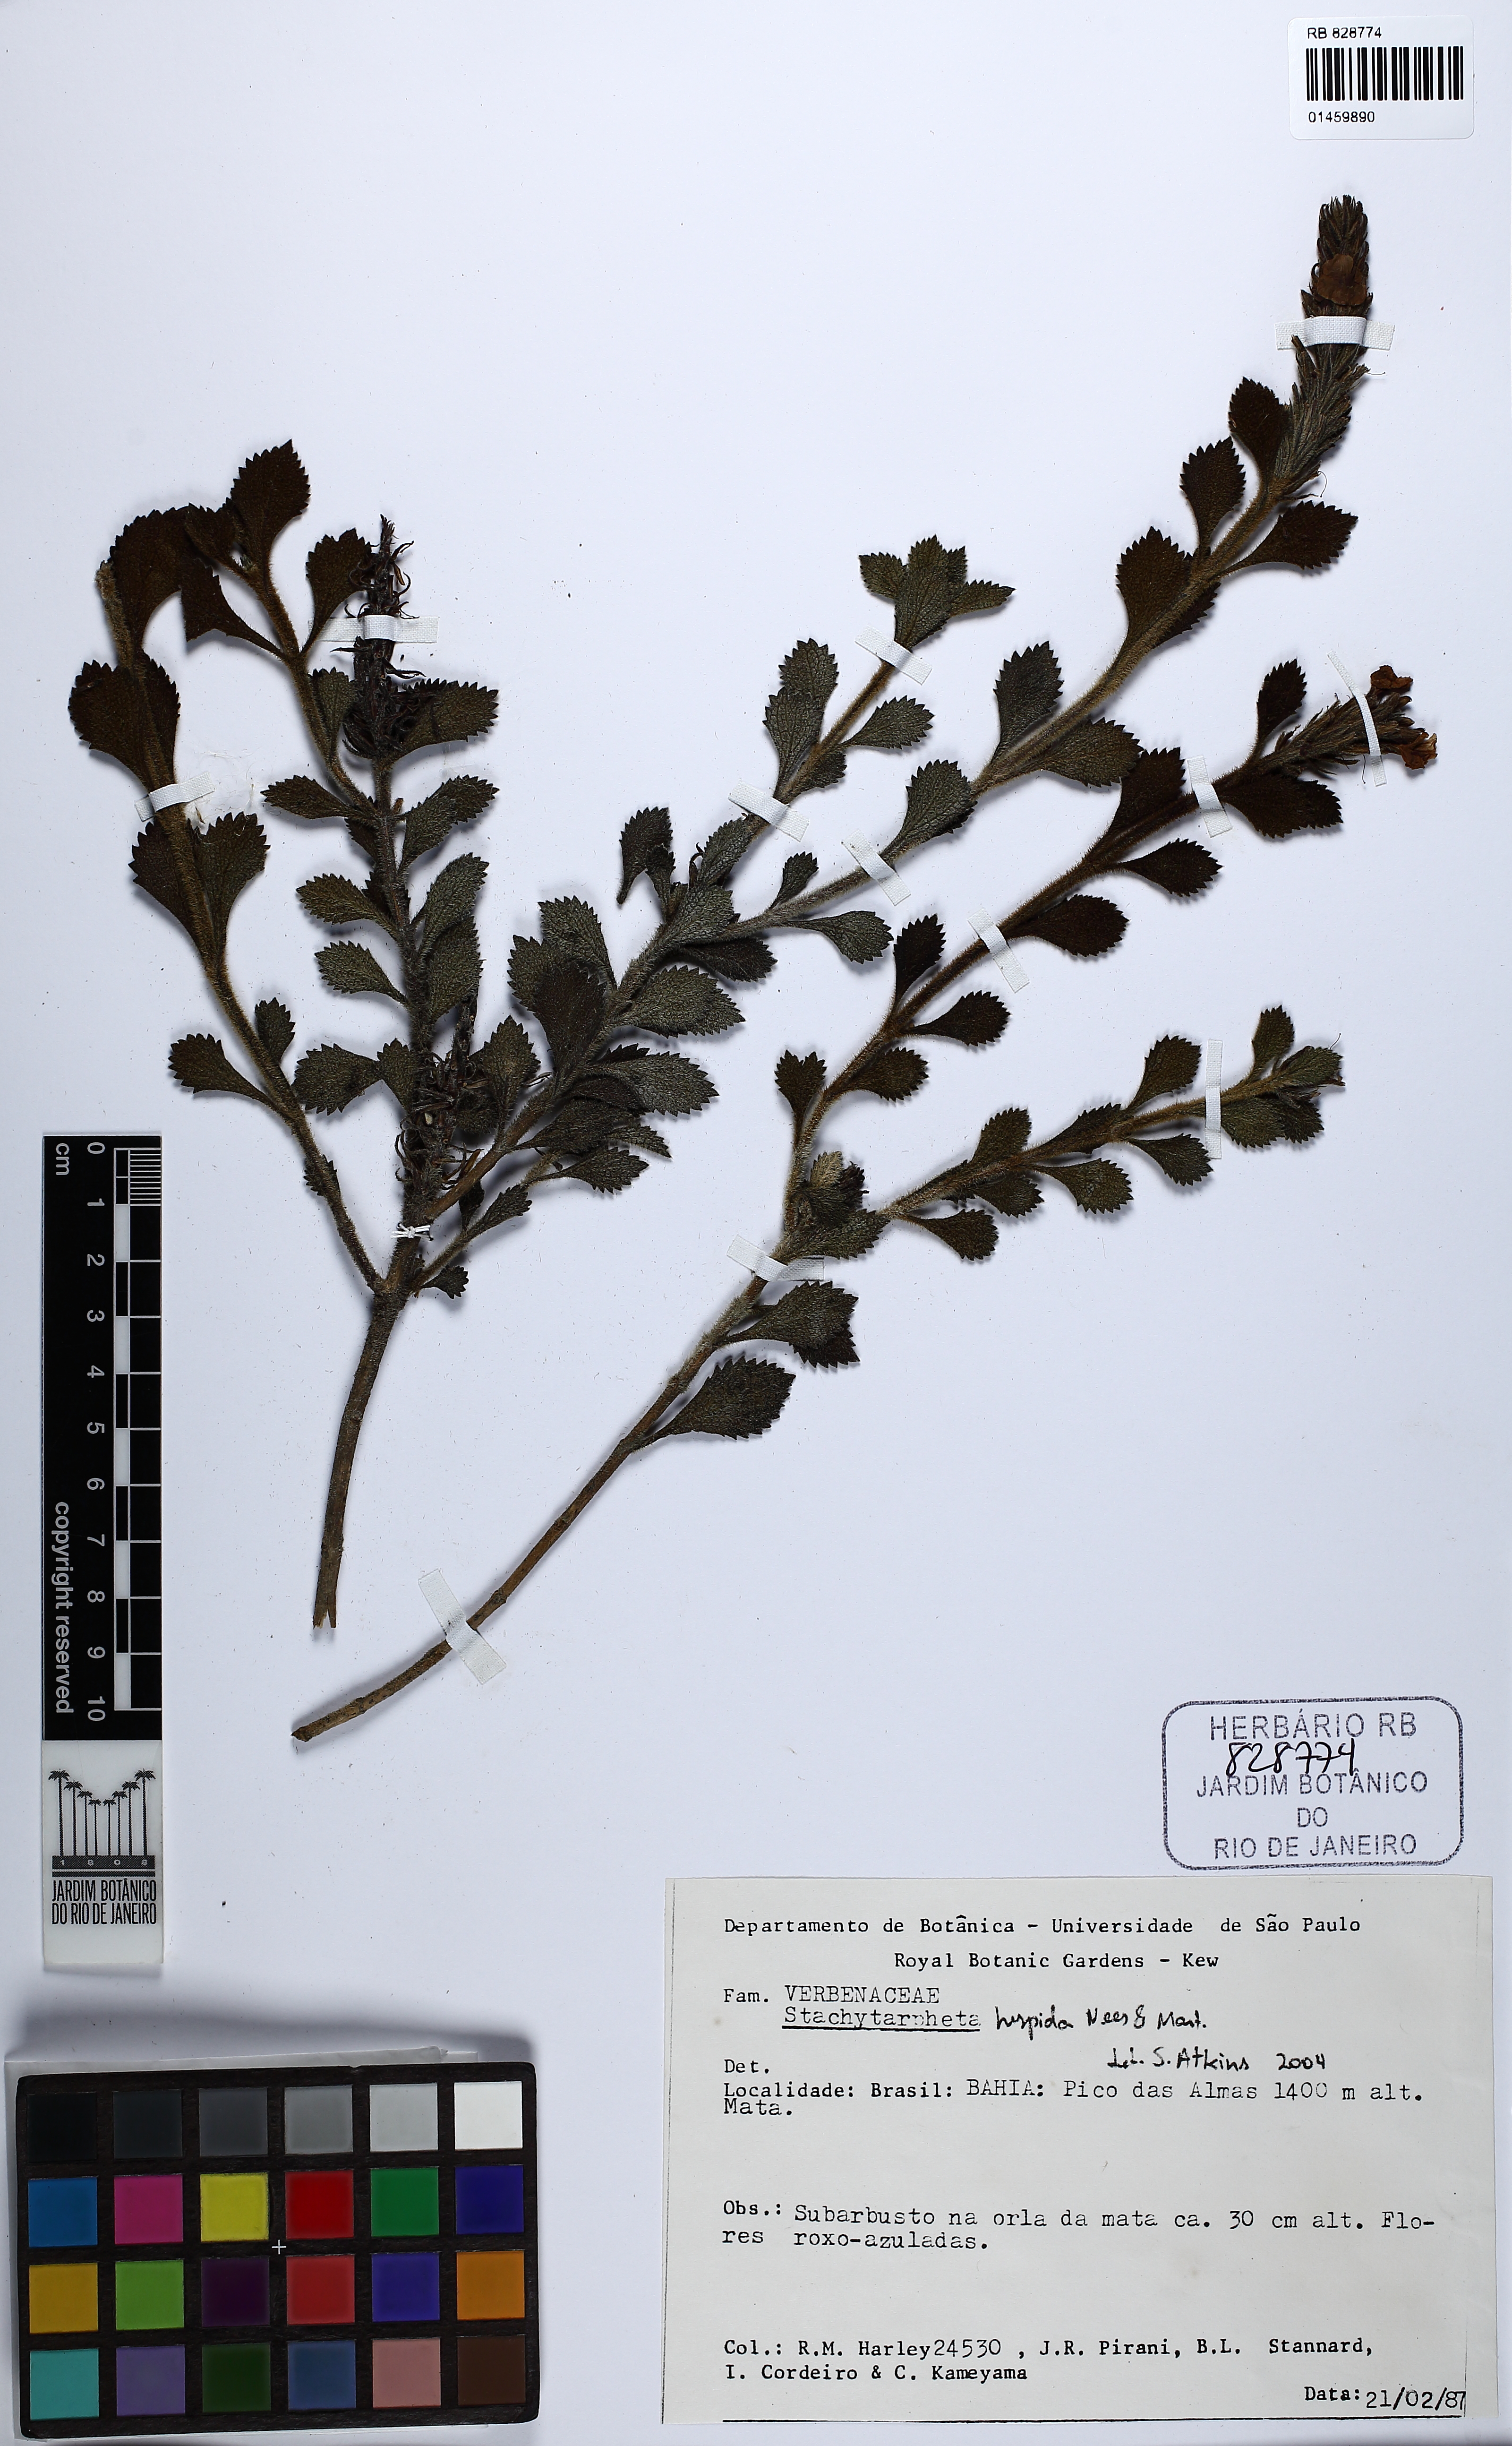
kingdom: Plantae
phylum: Tracheophyta
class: Magnoliopsida
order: Lamiales
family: Verbenaceae
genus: Stachytarpheta
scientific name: Stachytarpheta hispida
